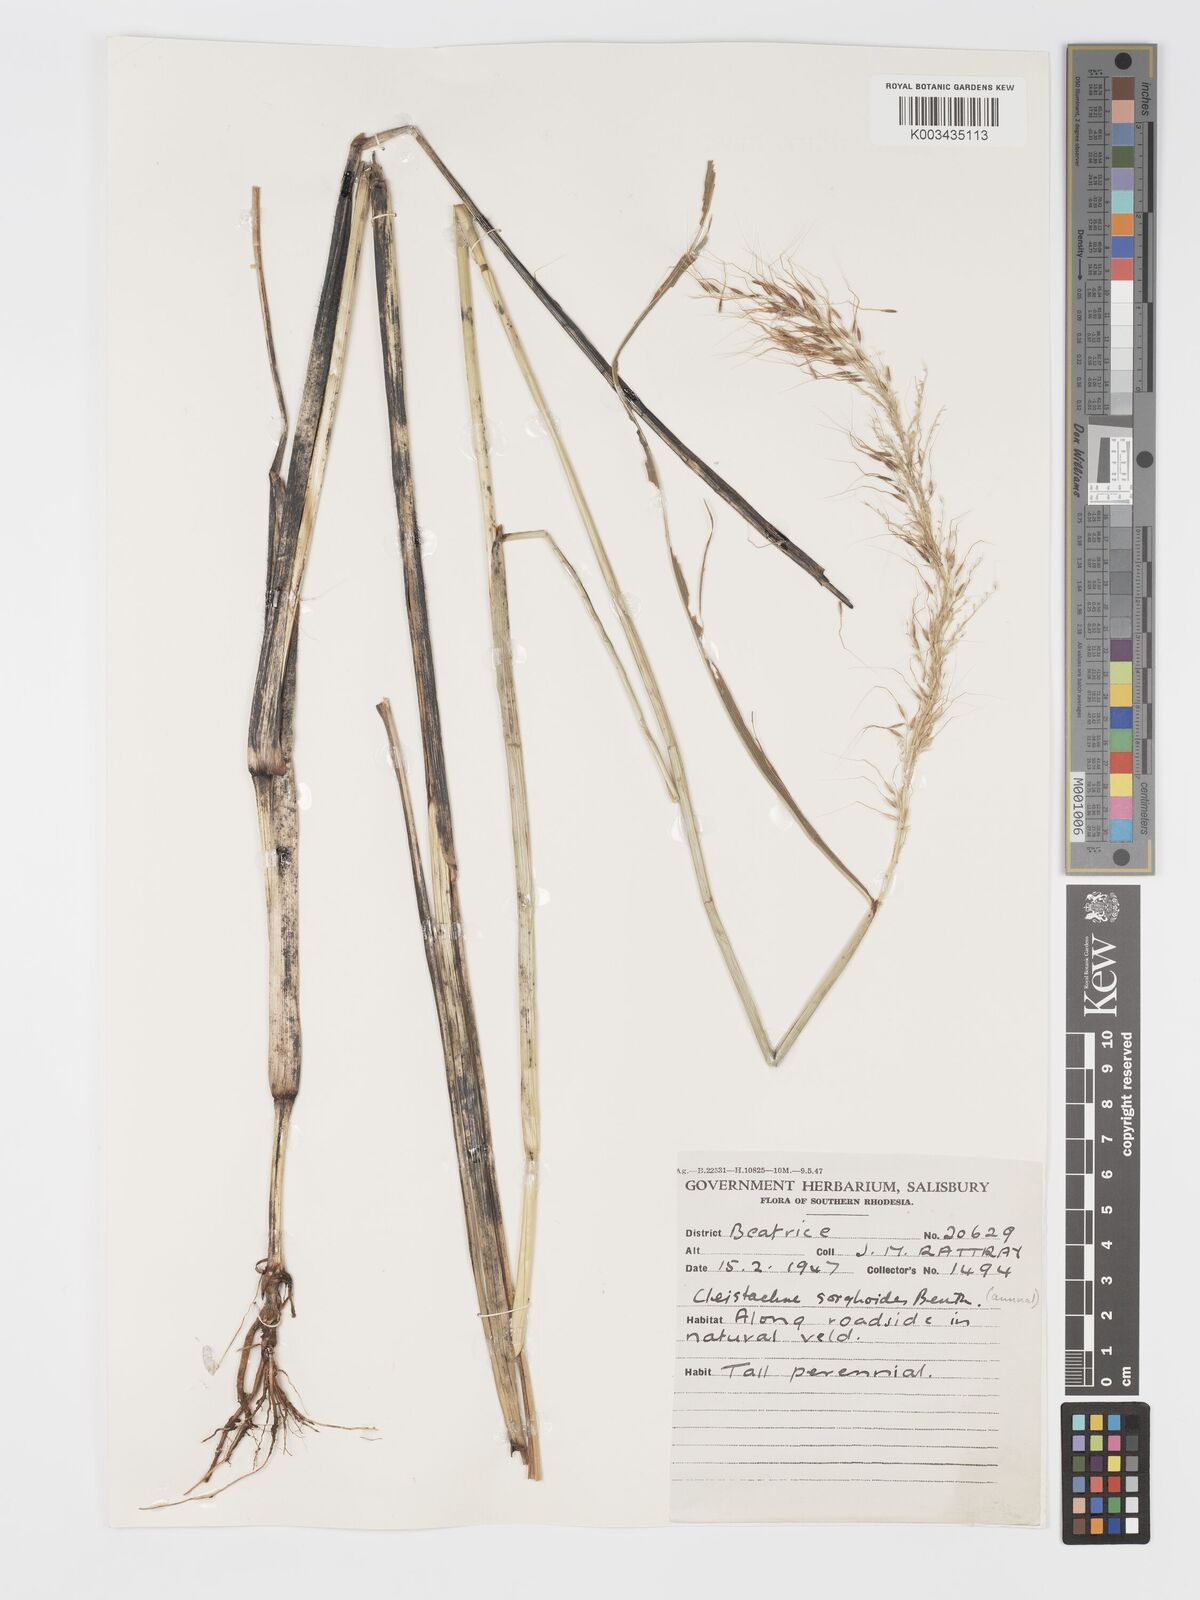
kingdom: Plantae
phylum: Tracheophyta
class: Liliopsida
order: Poales
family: Poaceae
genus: Cleistachne
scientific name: Cleistachne sorghoides
